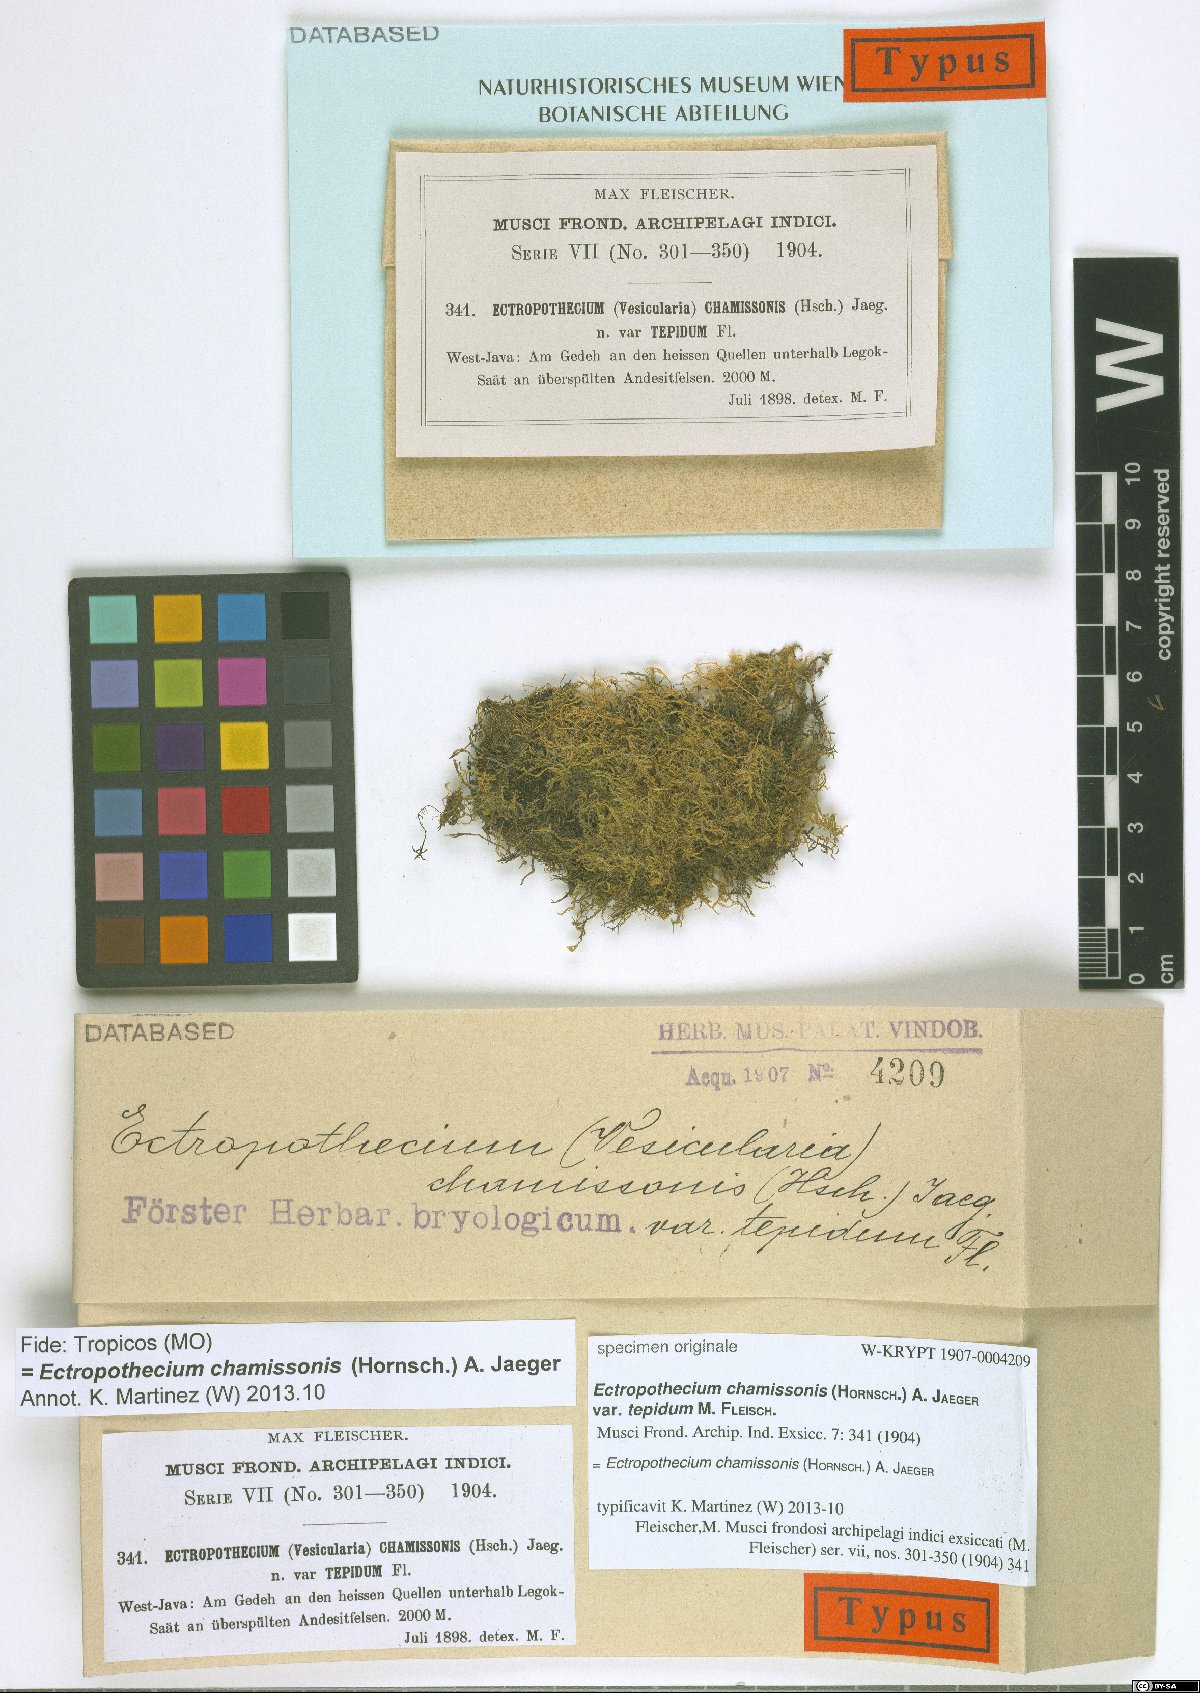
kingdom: Plantae
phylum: Bryophyta
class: Bryopsida
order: Hypnales
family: Hypnaceae
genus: Ectropothecium
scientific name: Ectropothecium chamissonis
